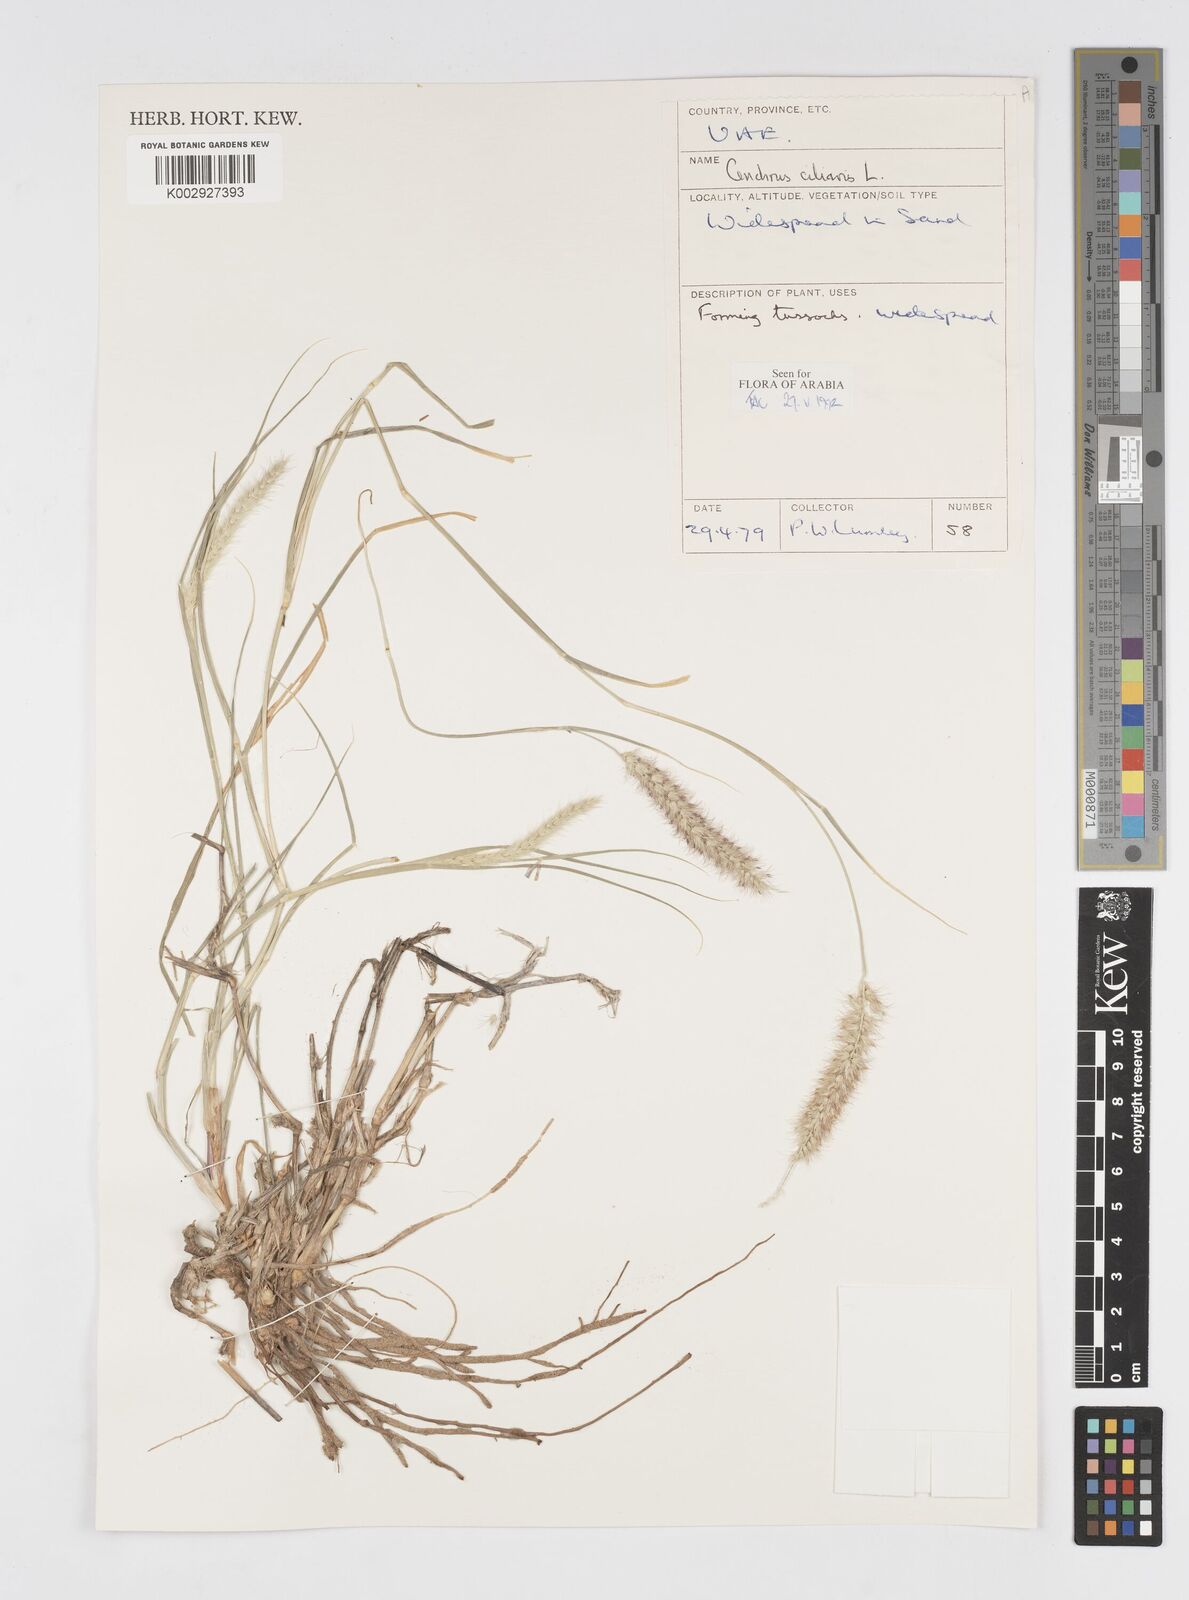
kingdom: Plantae
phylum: Tracheophyta
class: Liliopsida
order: Poales
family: Poaceae
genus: Cenchrus
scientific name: Cenchrus ciliaris
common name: Buffelgrass
